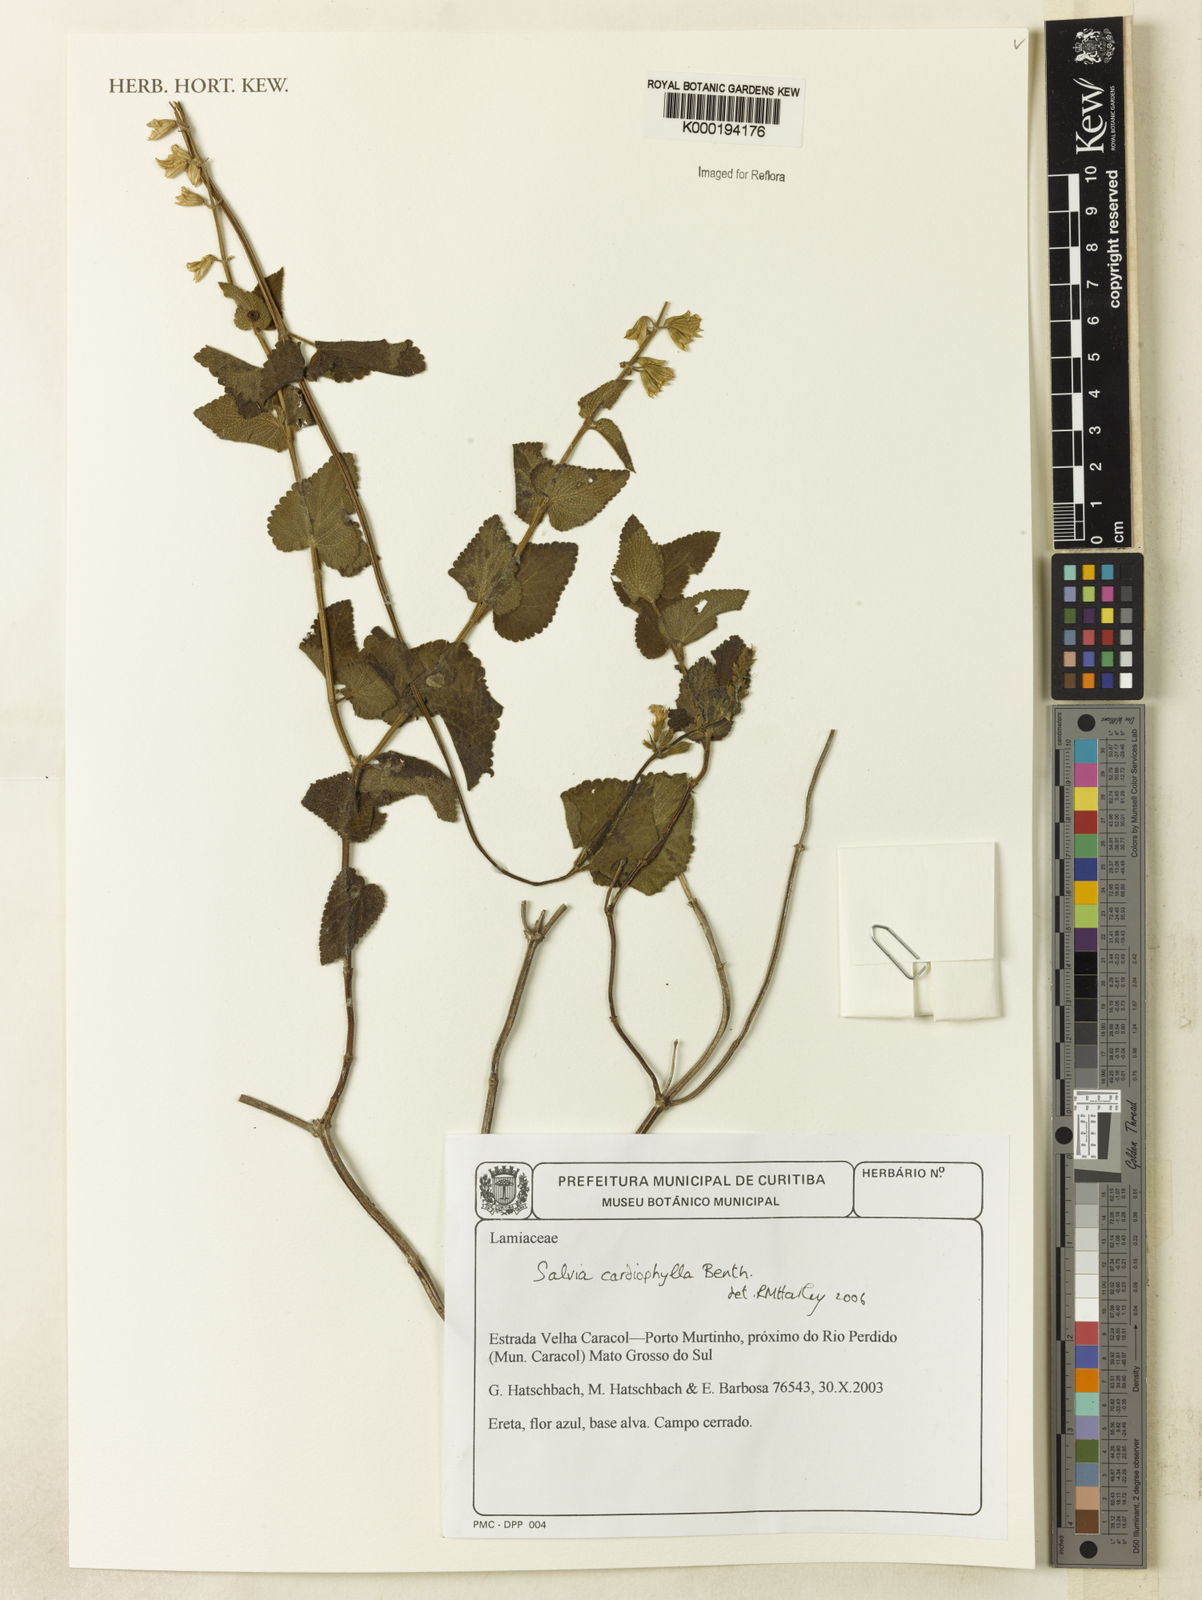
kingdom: Plantae
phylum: Tracheophyta
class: Magnoliopsida
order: Lamiales
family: Lamiaceae
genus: Salvia
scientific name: Salvia cardiophylla
